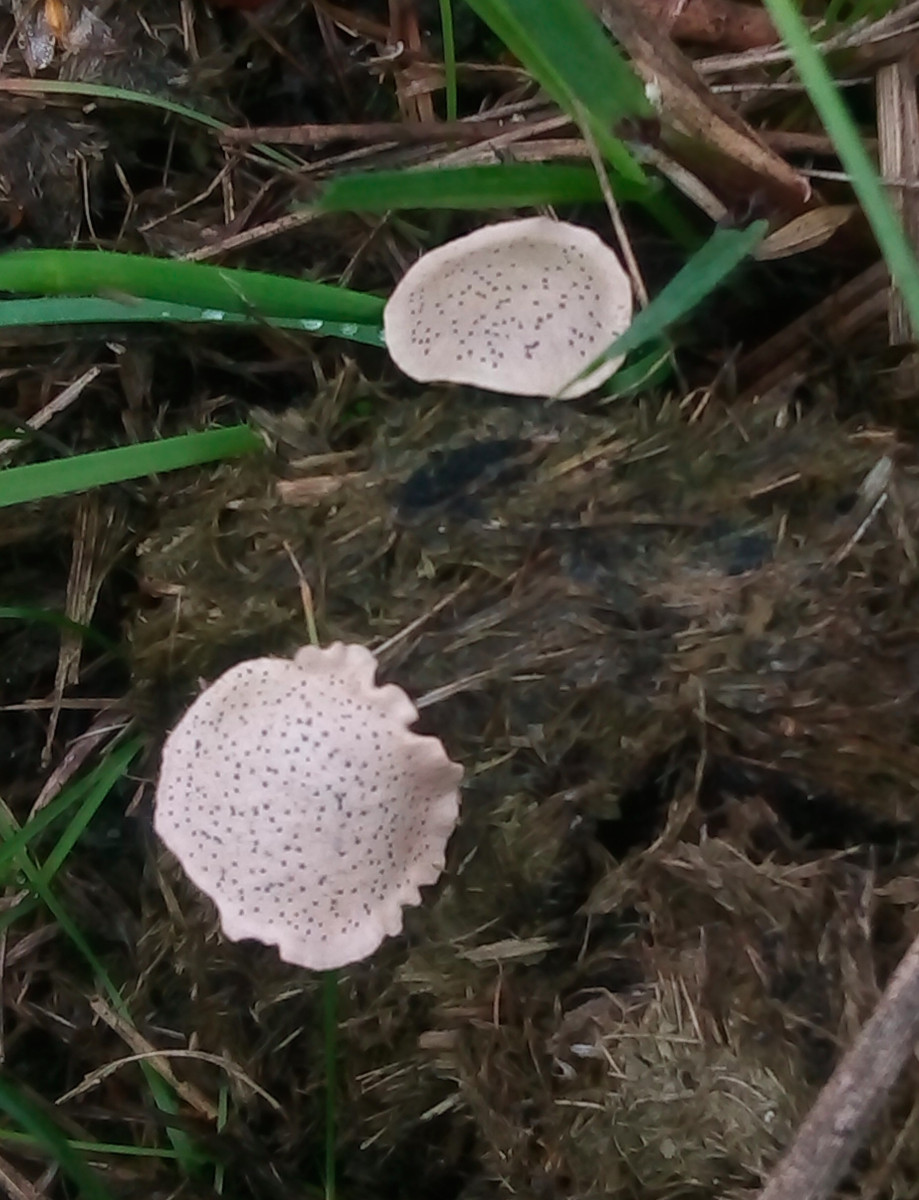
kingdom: Fungi
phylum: Ascomycota
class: Sordariomycetes
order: Xylariales
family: Xylariaceae
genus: Poronia
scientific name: Poronia punctata
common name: stor priksvamp
